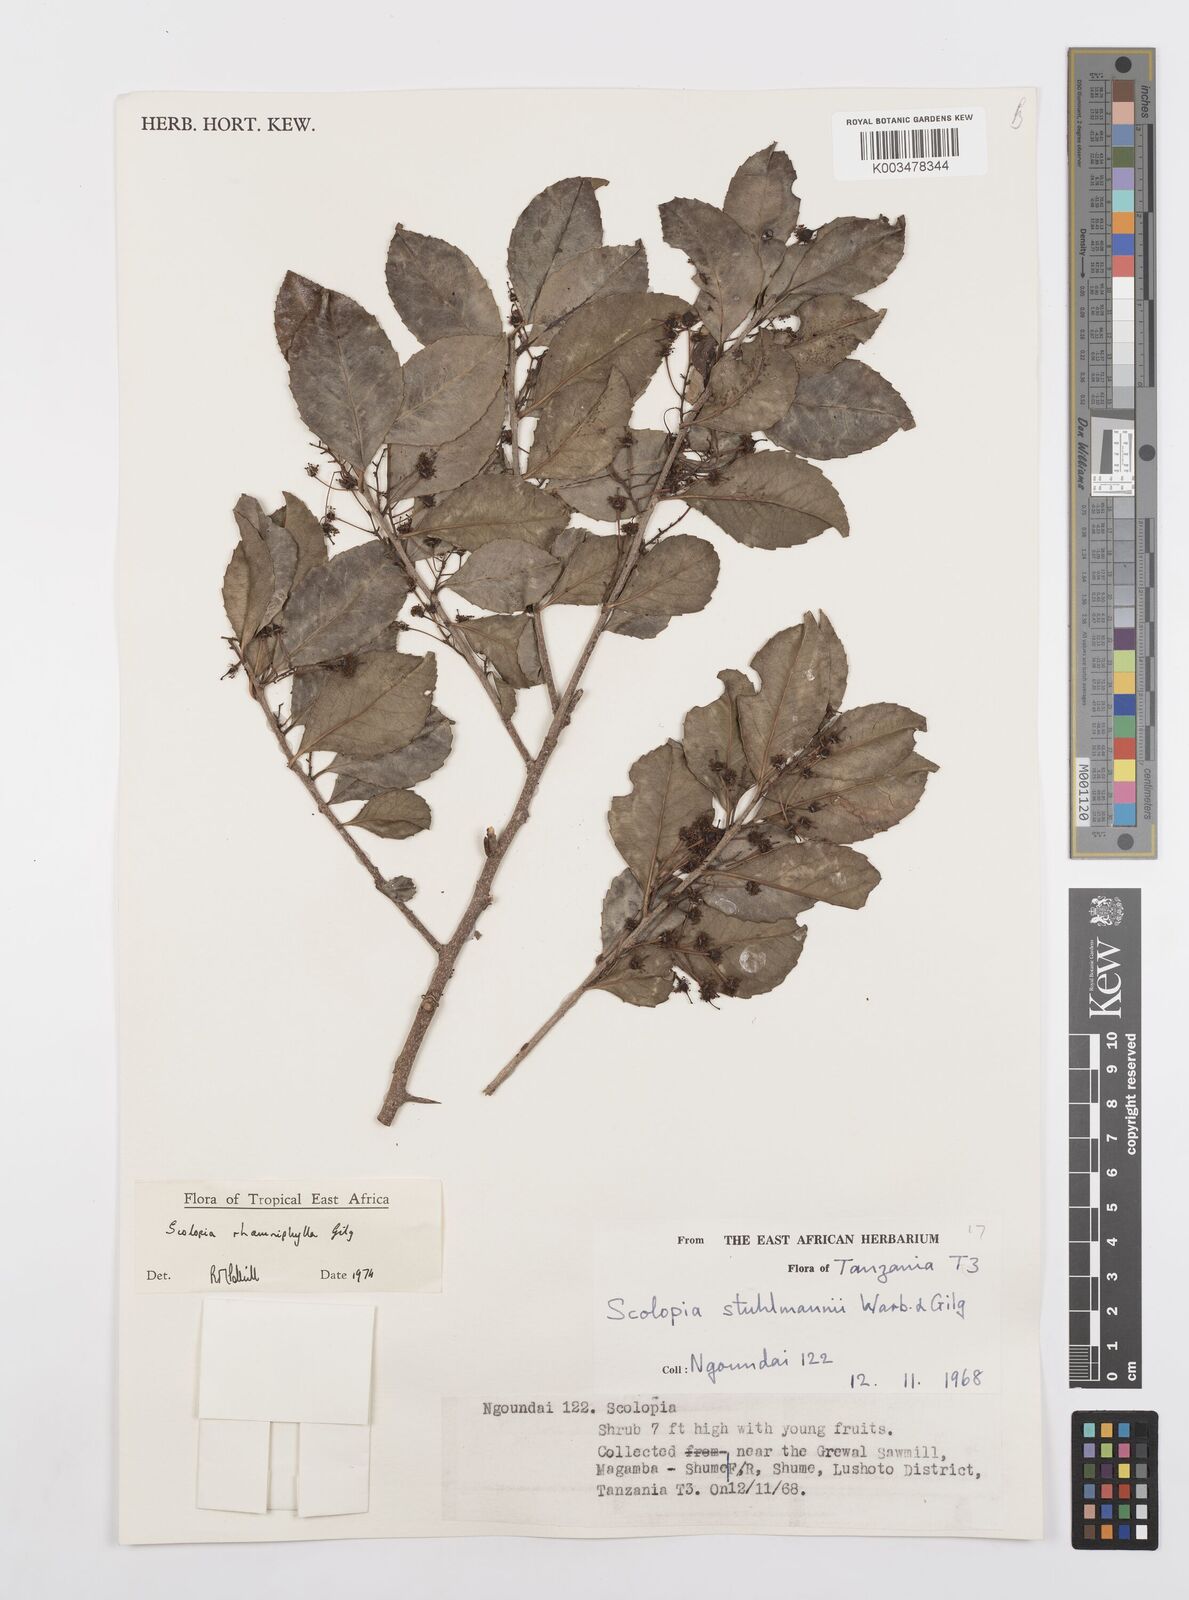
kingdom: Plantae
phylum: Tracheophyta
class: Magnoliopsida
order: Malpighiales
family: Salicaceae
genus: Scolopia
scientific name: Scolopia rhamniphylla
